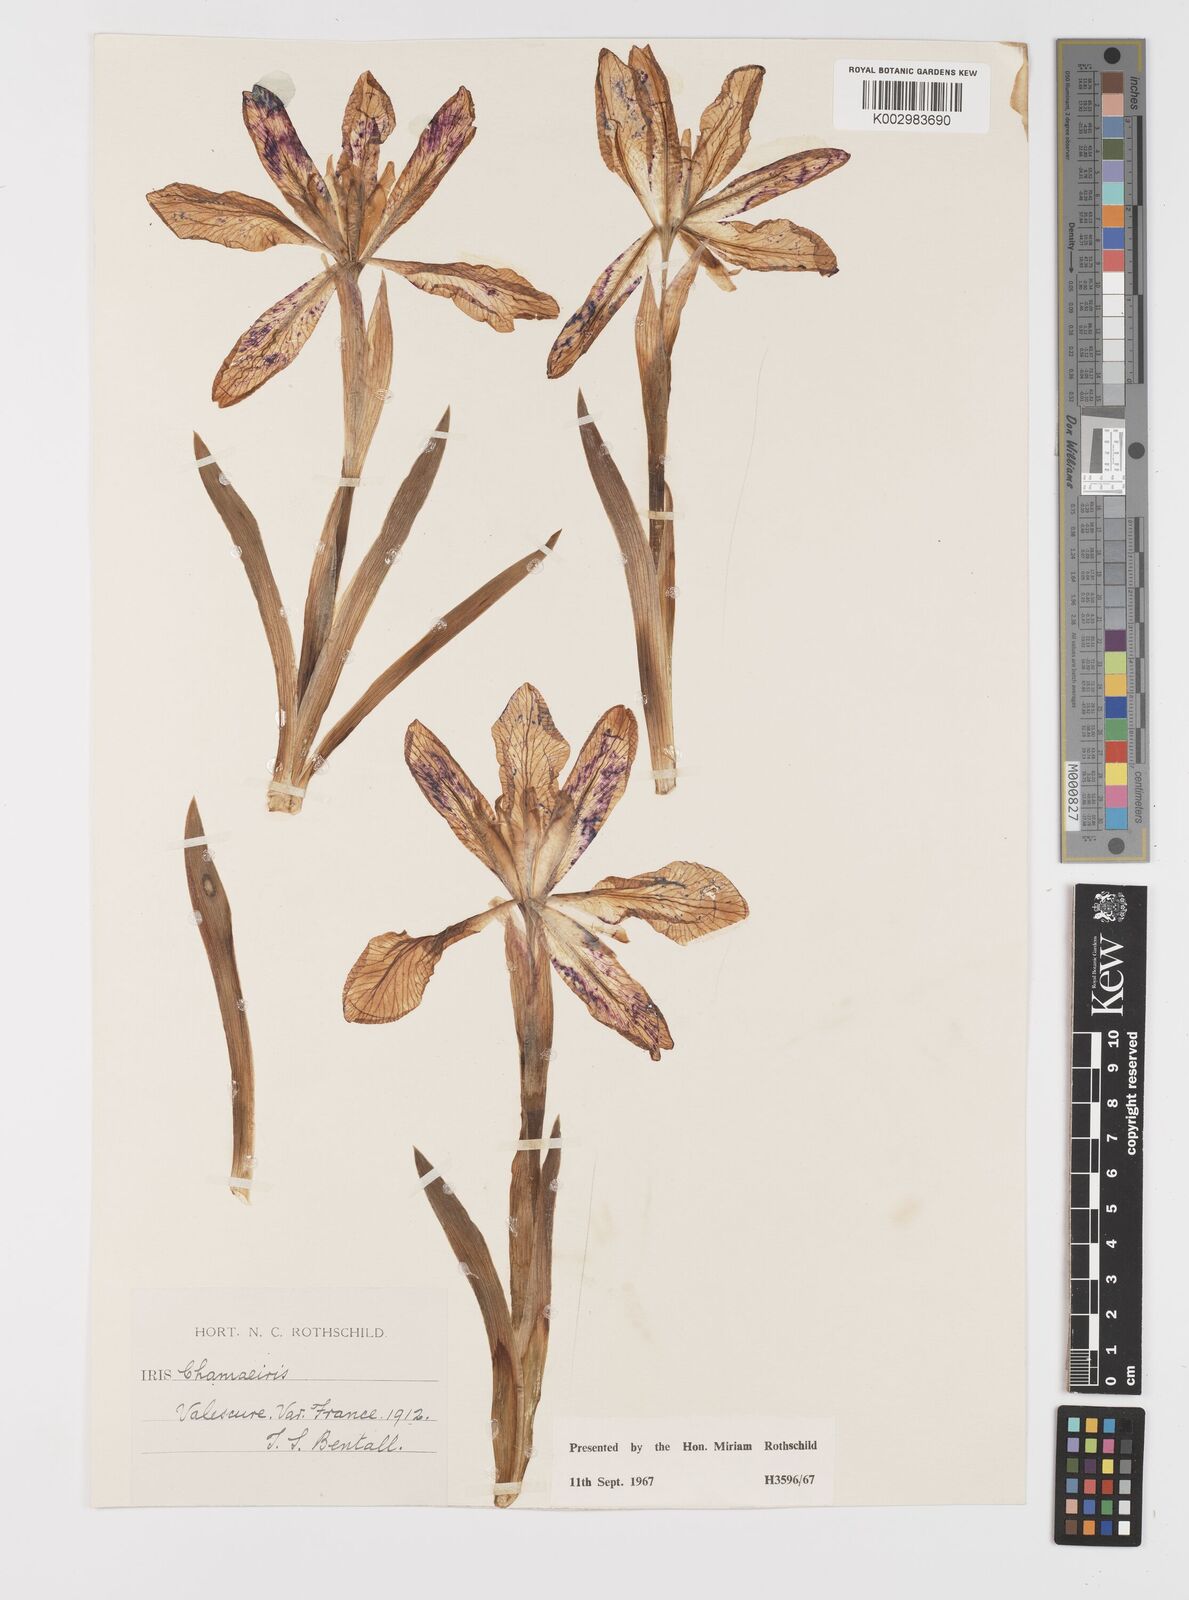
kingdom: Plantae
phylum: Tracheophyta
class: Liliopsida
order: Asparagales
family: Iridaceae
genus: Iris
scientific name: Iris lutescens
